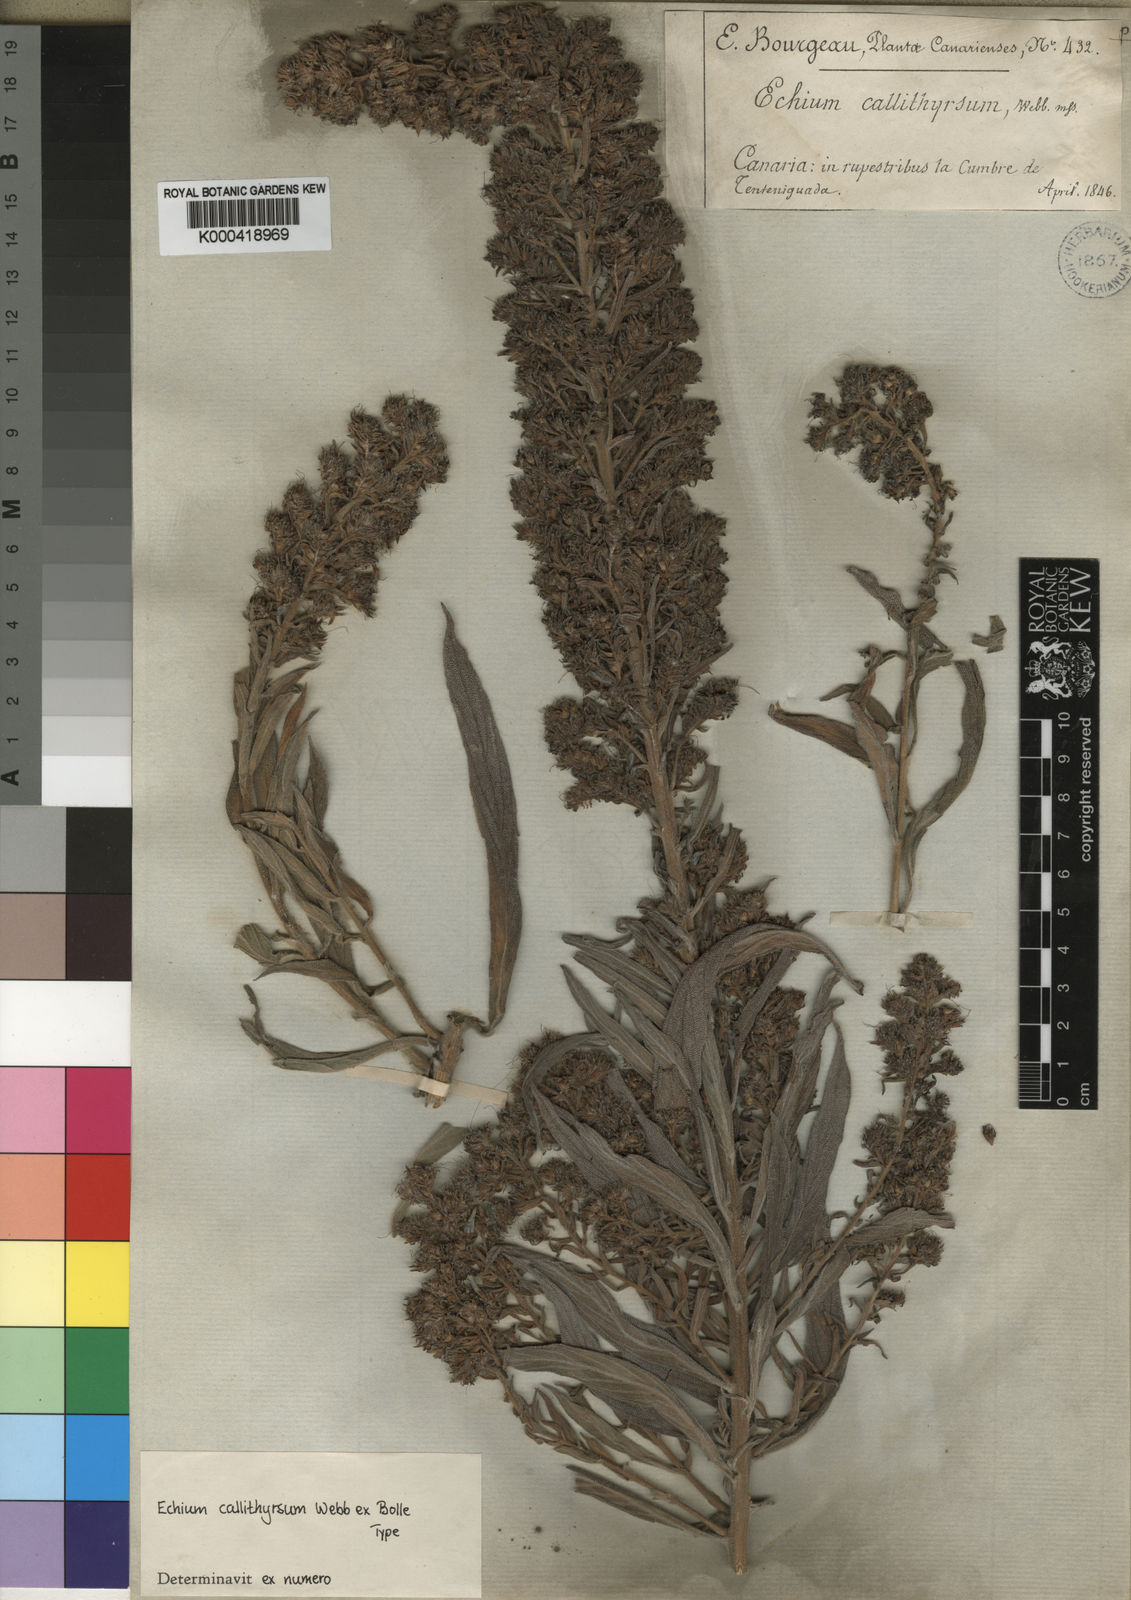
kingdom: Plantae
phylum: Tracheophyta
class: Magnoliopsida
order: Boraginales
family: Boraginaceae
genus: Echium
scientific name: Echium callithyrsum
